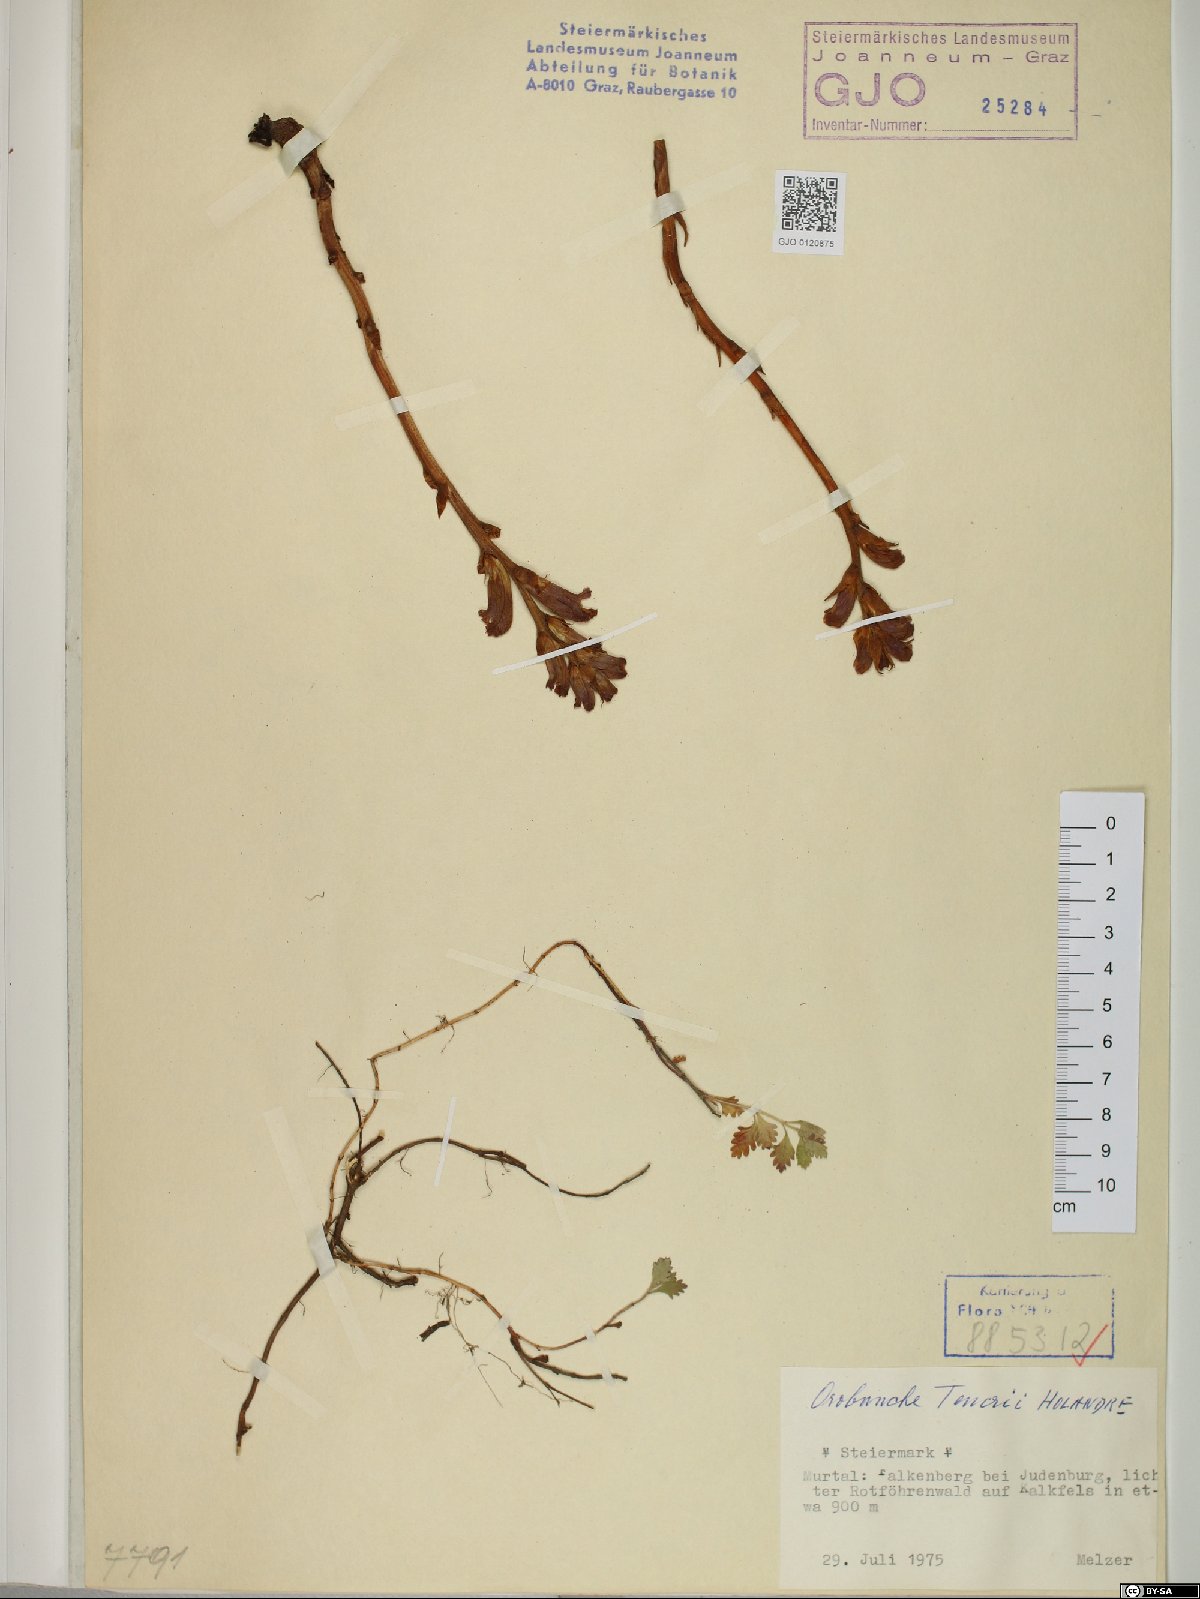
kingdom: Plantae
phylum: Tracheophyta
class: Magnoliopsida
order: Lamiales
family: Orobanchaceae
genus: Orobanche
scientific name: Orobanche teucrii
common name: Germander broomrape
